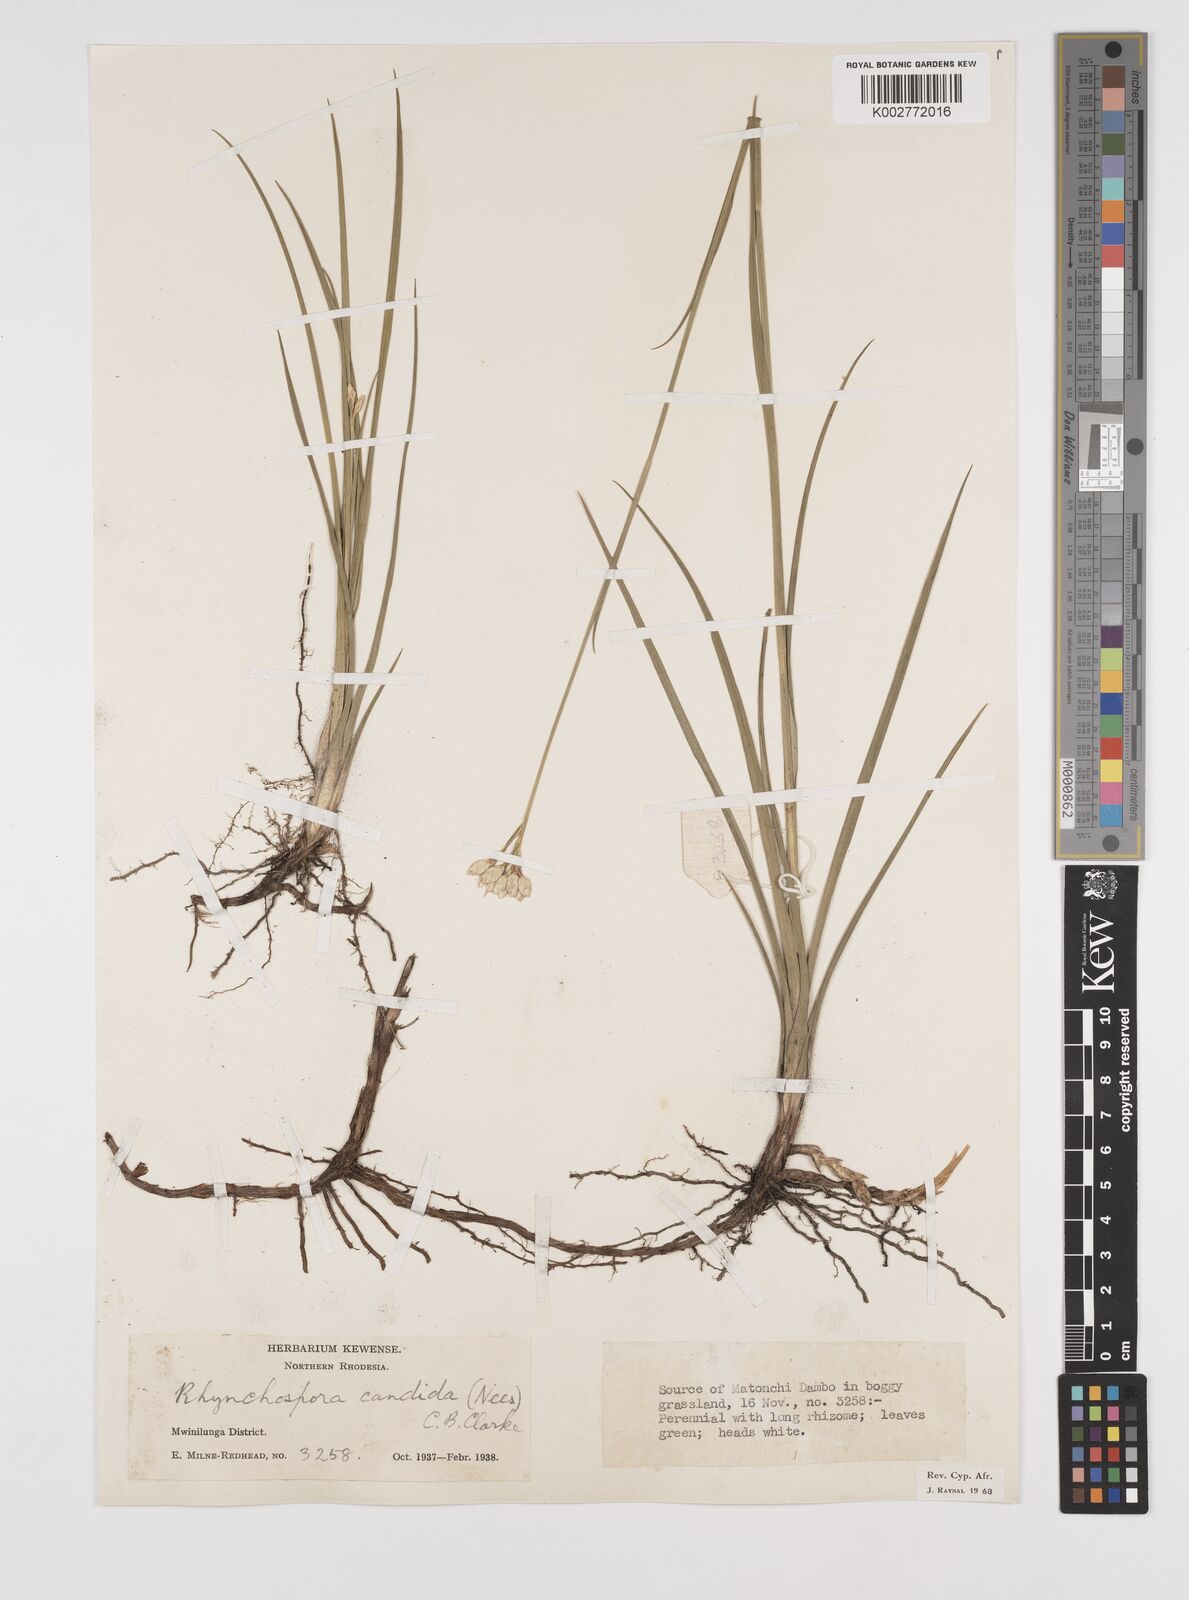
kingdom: Plantae
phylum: Tracheophyta
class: Liliopsida
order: Poales
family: Cyperaceae
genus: Rhynchospora
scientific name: Rhynchospora candida
